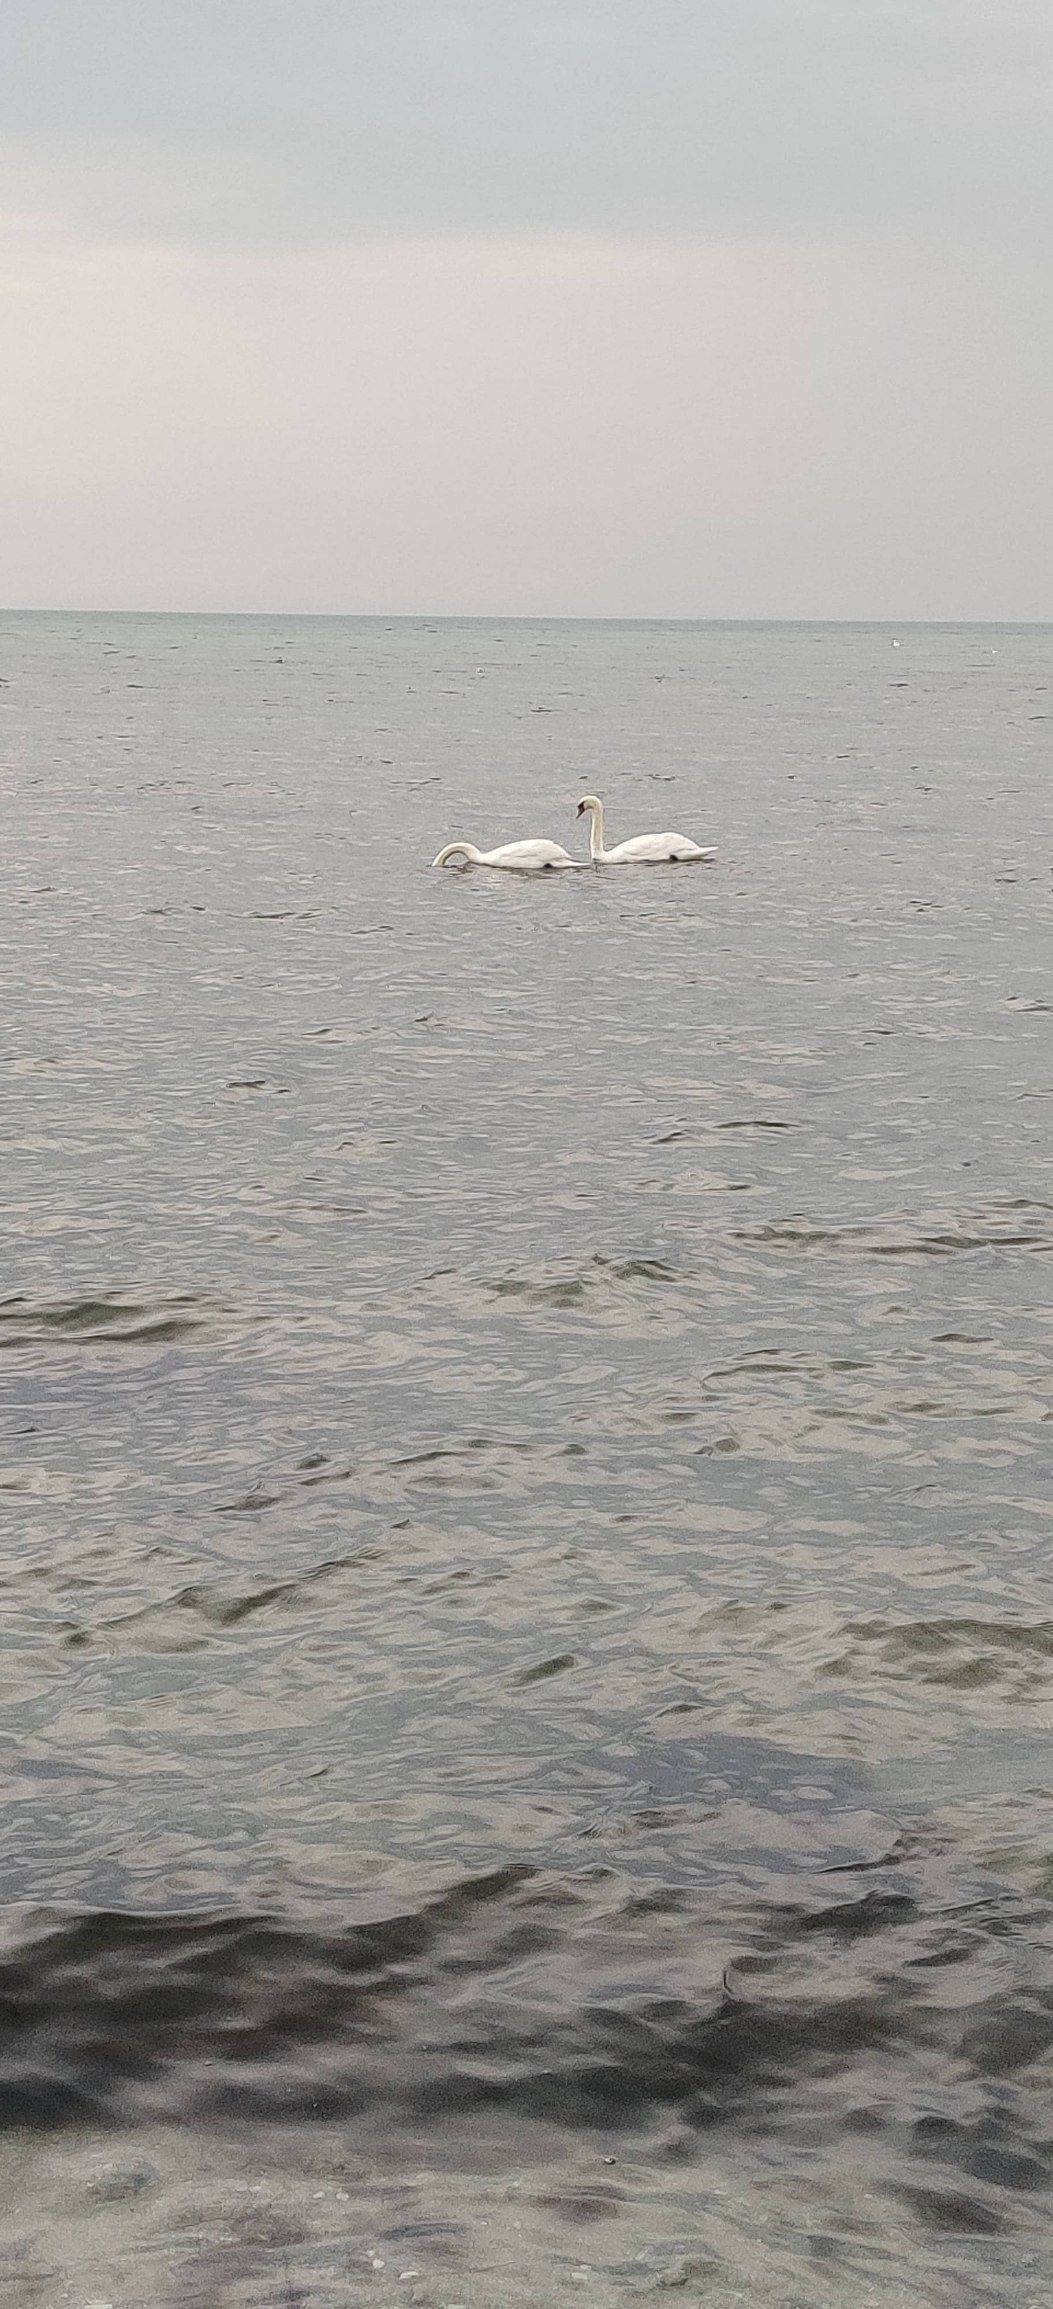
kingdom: Animalia
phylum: Chordata
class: Aves
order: Anseriformes
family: Anatidae
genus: Cygnus
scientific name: Cygnus olor
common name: Knopsvane
